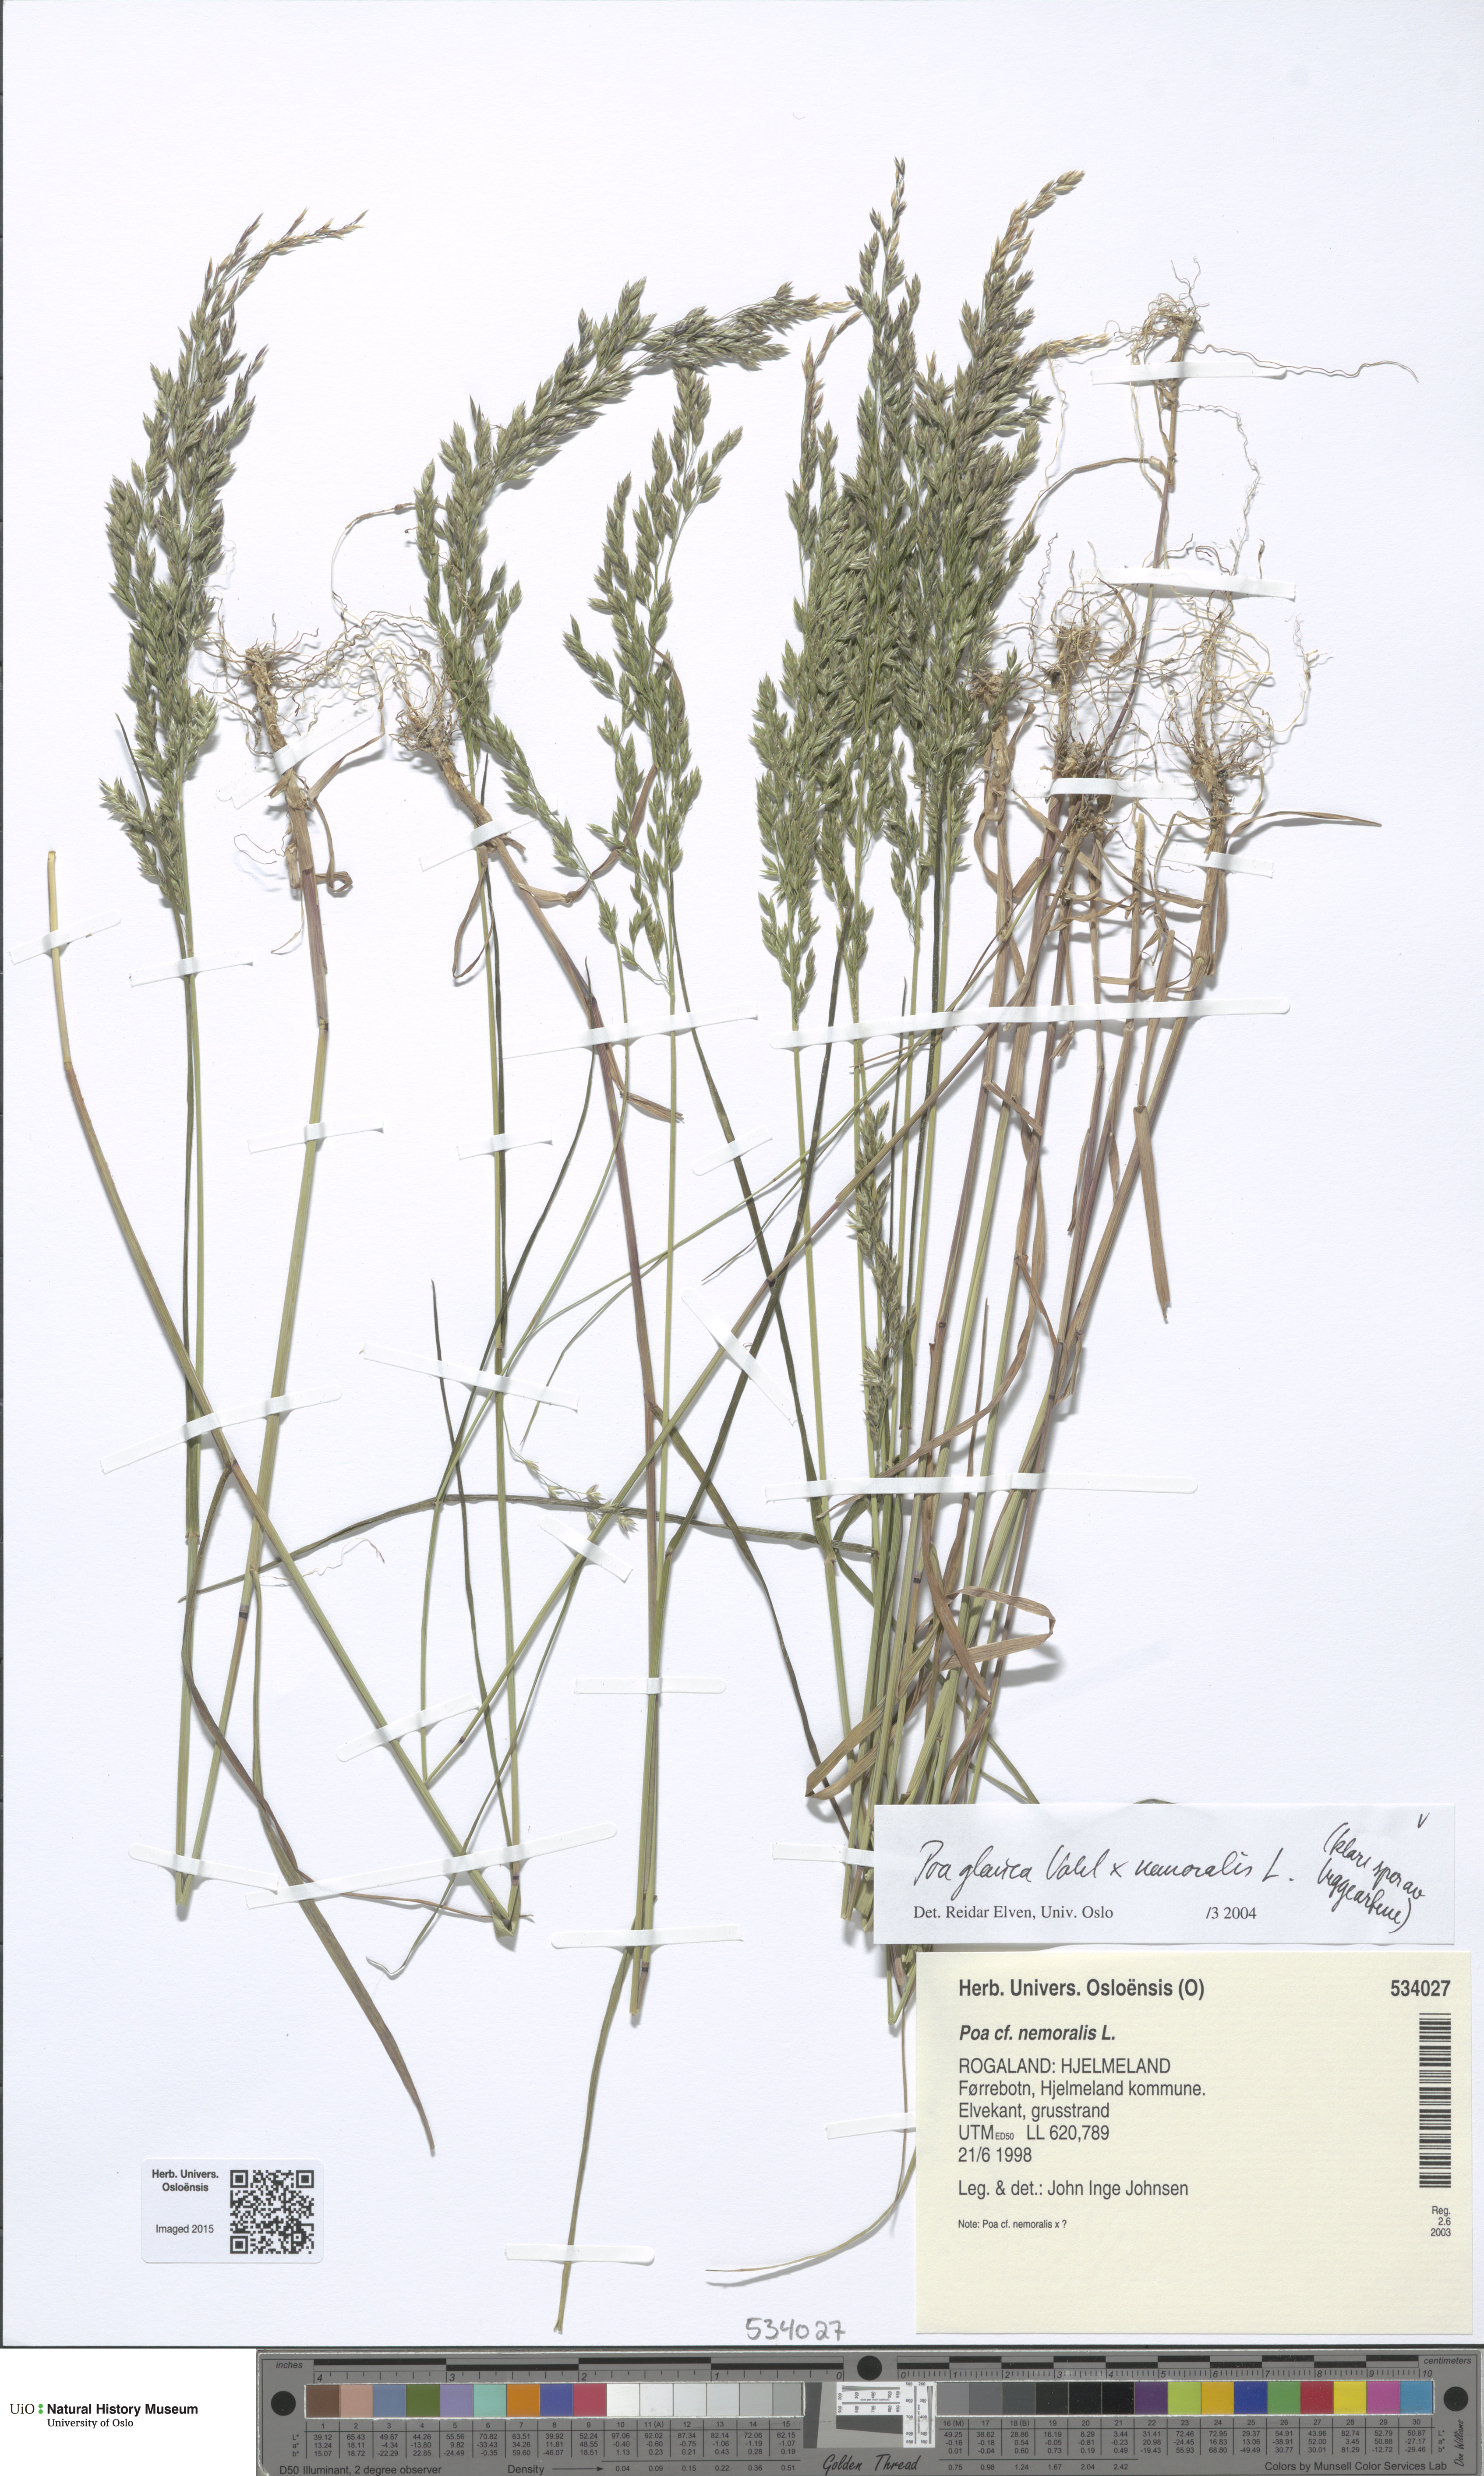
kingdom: Plantae
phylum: Tracheophyta
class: Liliopsida
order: Poales
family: Poaceae
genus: Poa
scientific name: Poa
